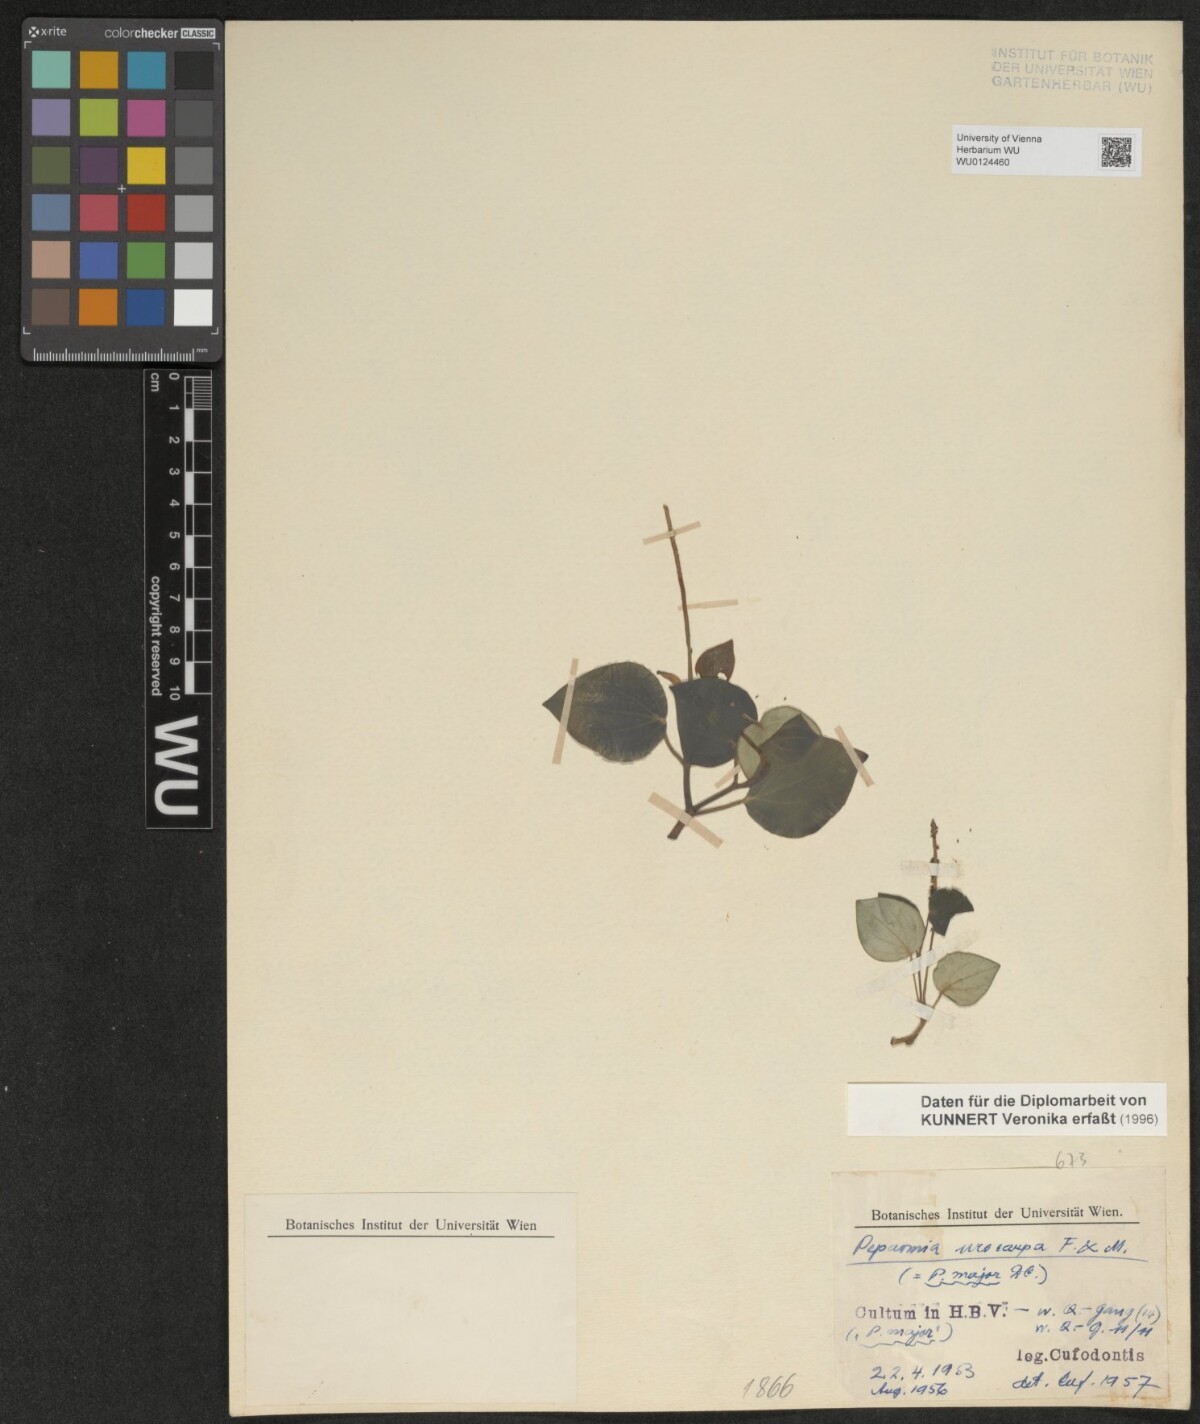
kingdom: Plantae
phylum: Tracheophyta
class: Magnoliopsida
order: Piperales
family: Piperaceae
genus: Peperomia
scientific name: Peperomia urocarpa
